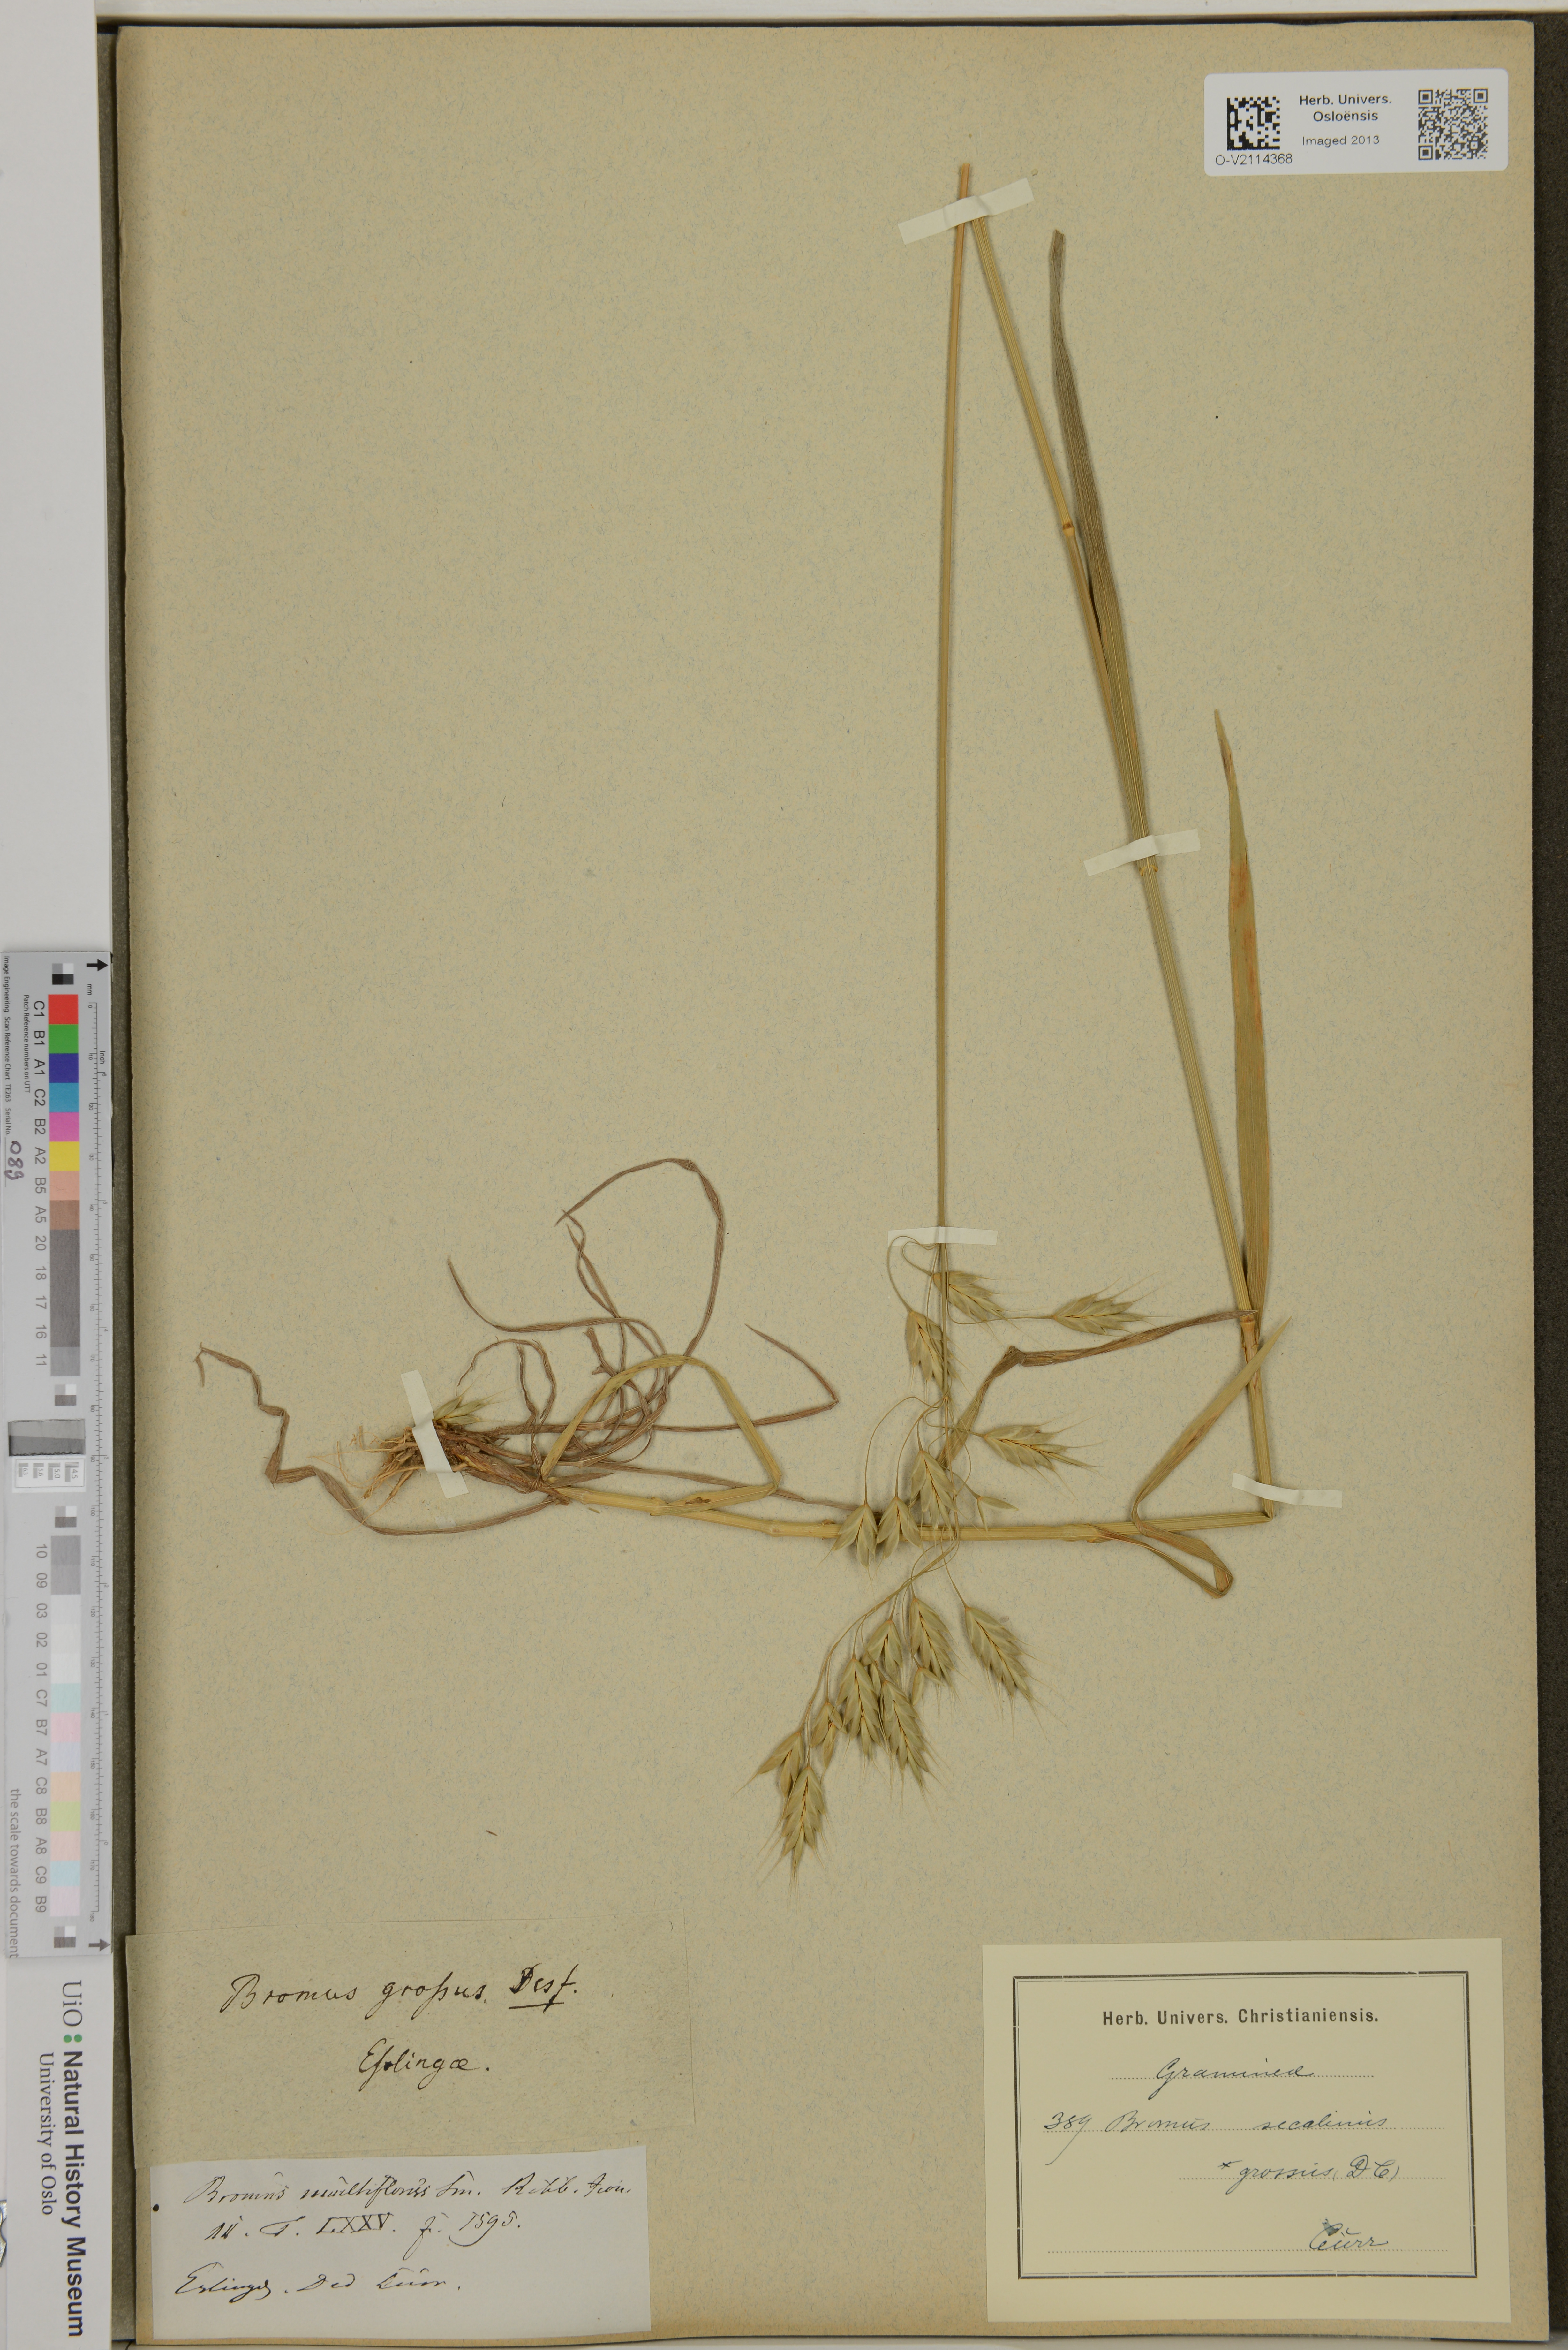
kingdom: Plantae
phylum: Tracheophyta
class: Liliopsida
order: Poales
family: Poaceae
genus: Bromus
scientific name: Bromus secalinus
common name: Rye brome
